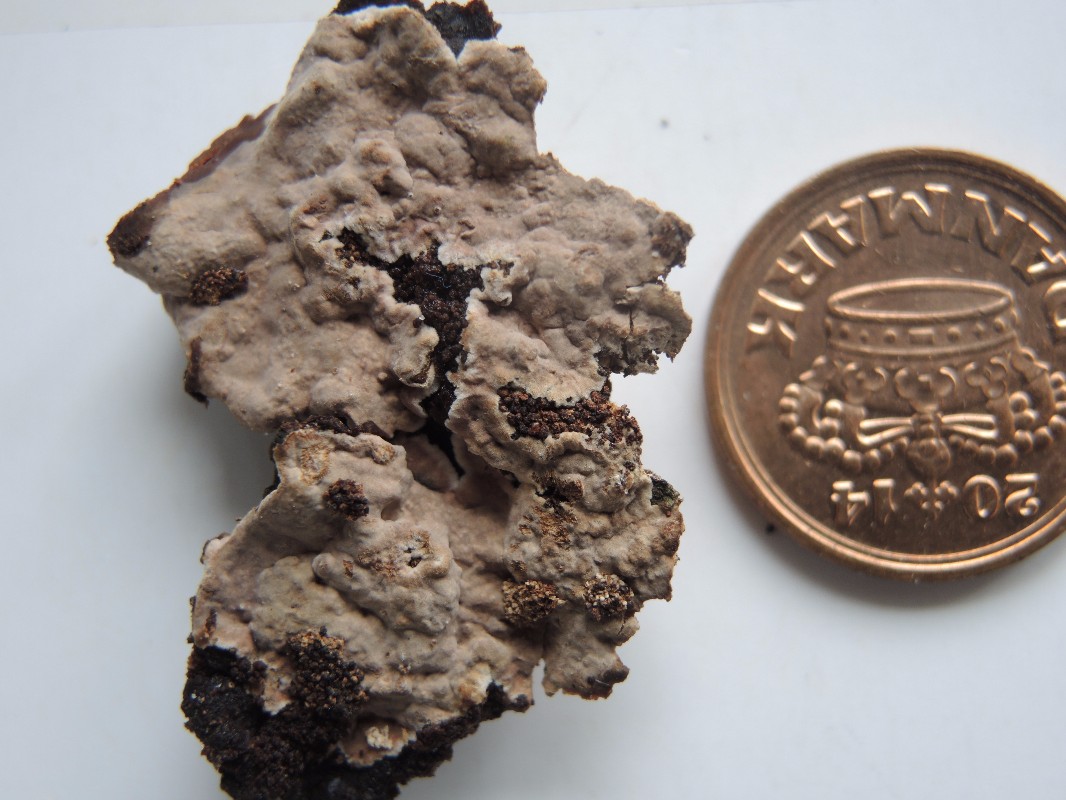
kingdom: Fungi
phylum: Basidiomycota
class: Agaricomycetes
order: Russulales
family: Echinodontiaceae
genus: Amylostereum
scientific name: Amylostereum chailletii
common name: gran-lædersvamp
